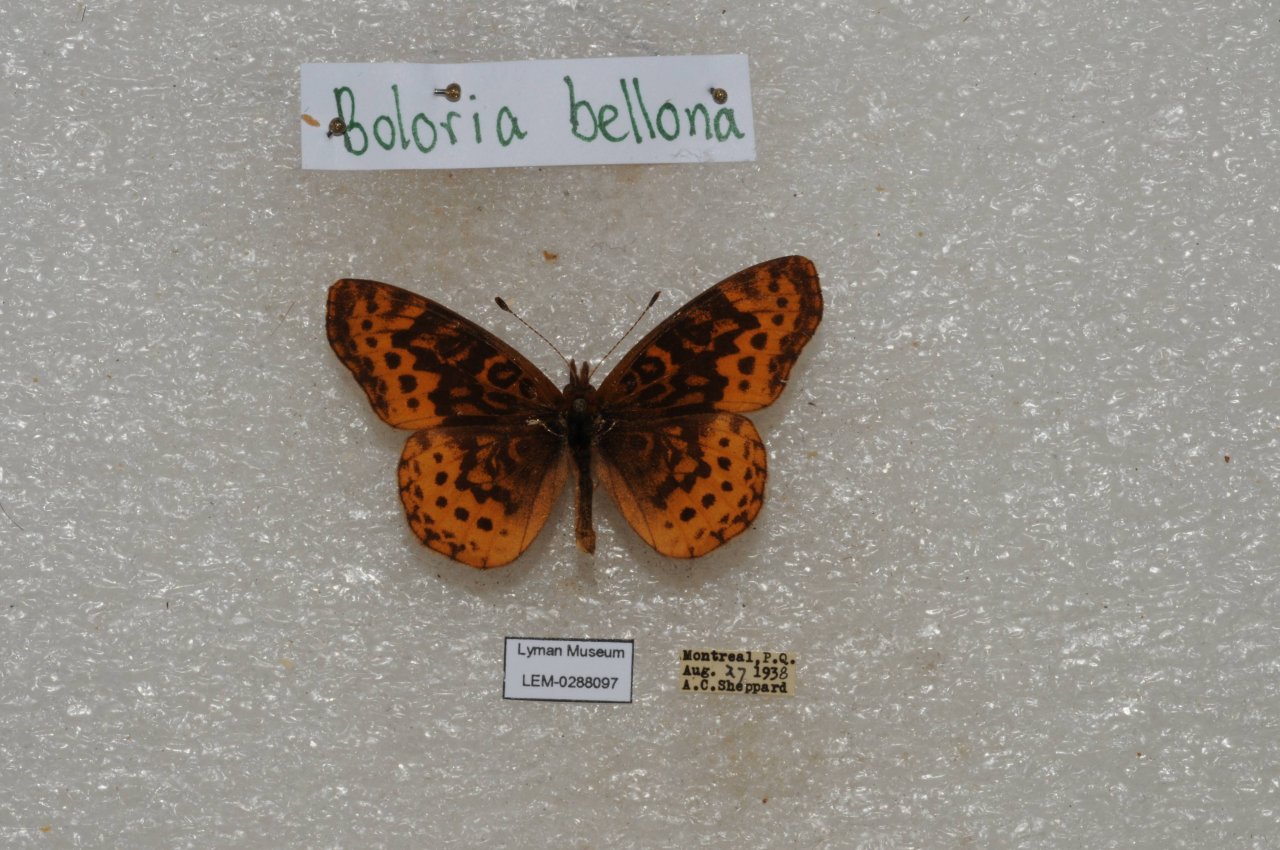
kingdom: Animalia
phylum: Arthropoda
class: Insecta
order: Lepidoptera
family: Nymphalidae
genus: Clossiana
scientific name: Clossiana toddi
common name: Meadow Fritillary
